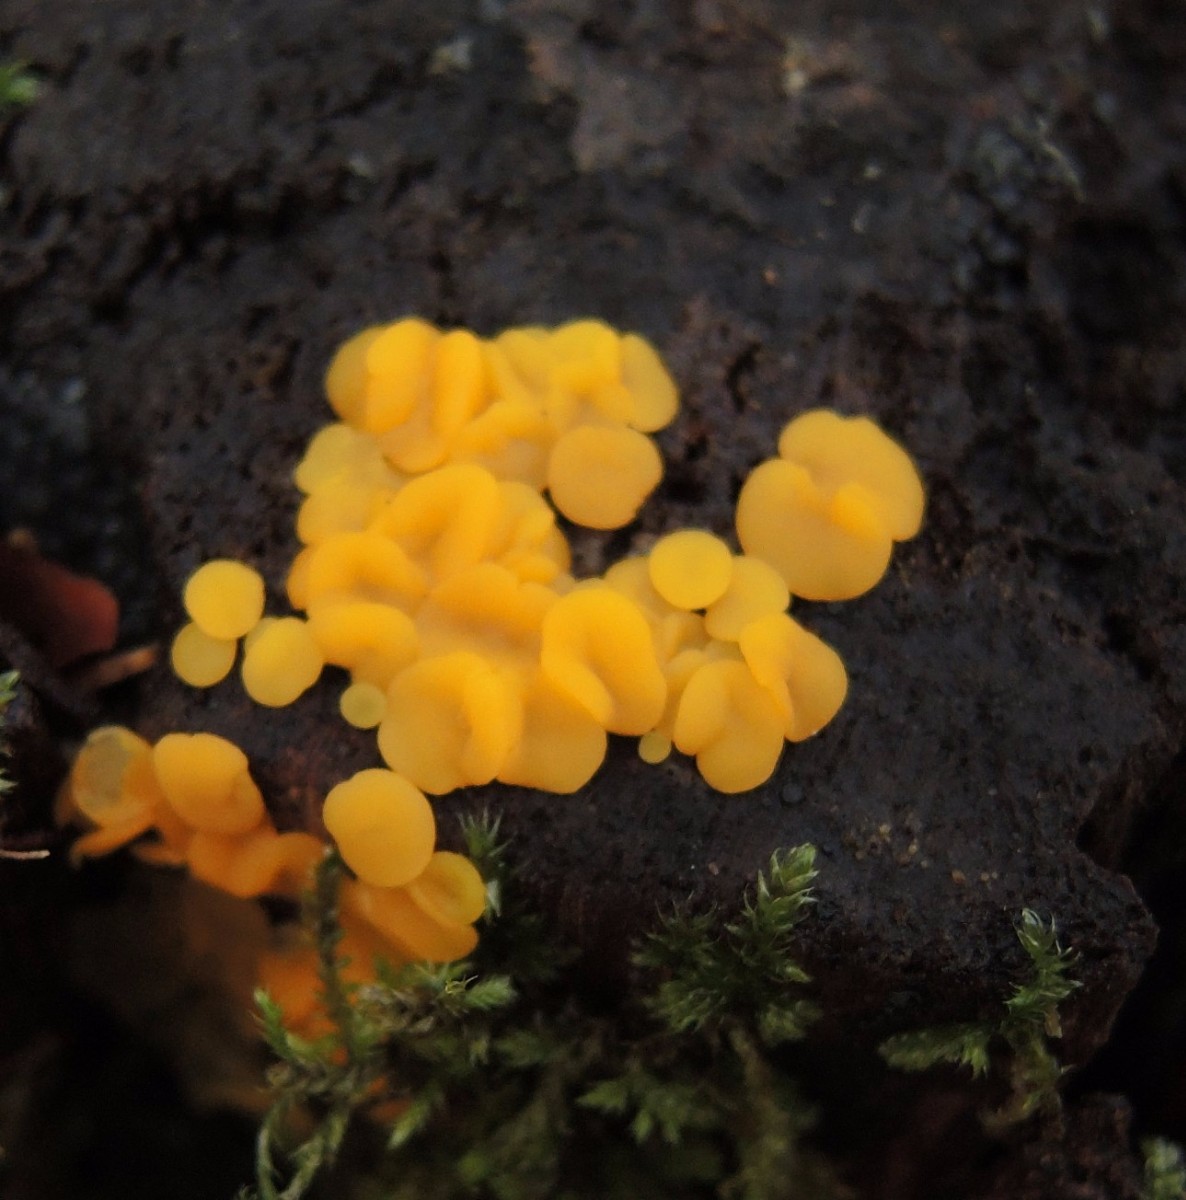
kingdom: Fungi
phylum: Ascomycota
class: Leotiomycetes
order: Helotiales
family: Pezizellaceae
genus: Calycina
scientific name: Calycina citrina
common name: almindelig gulskive
